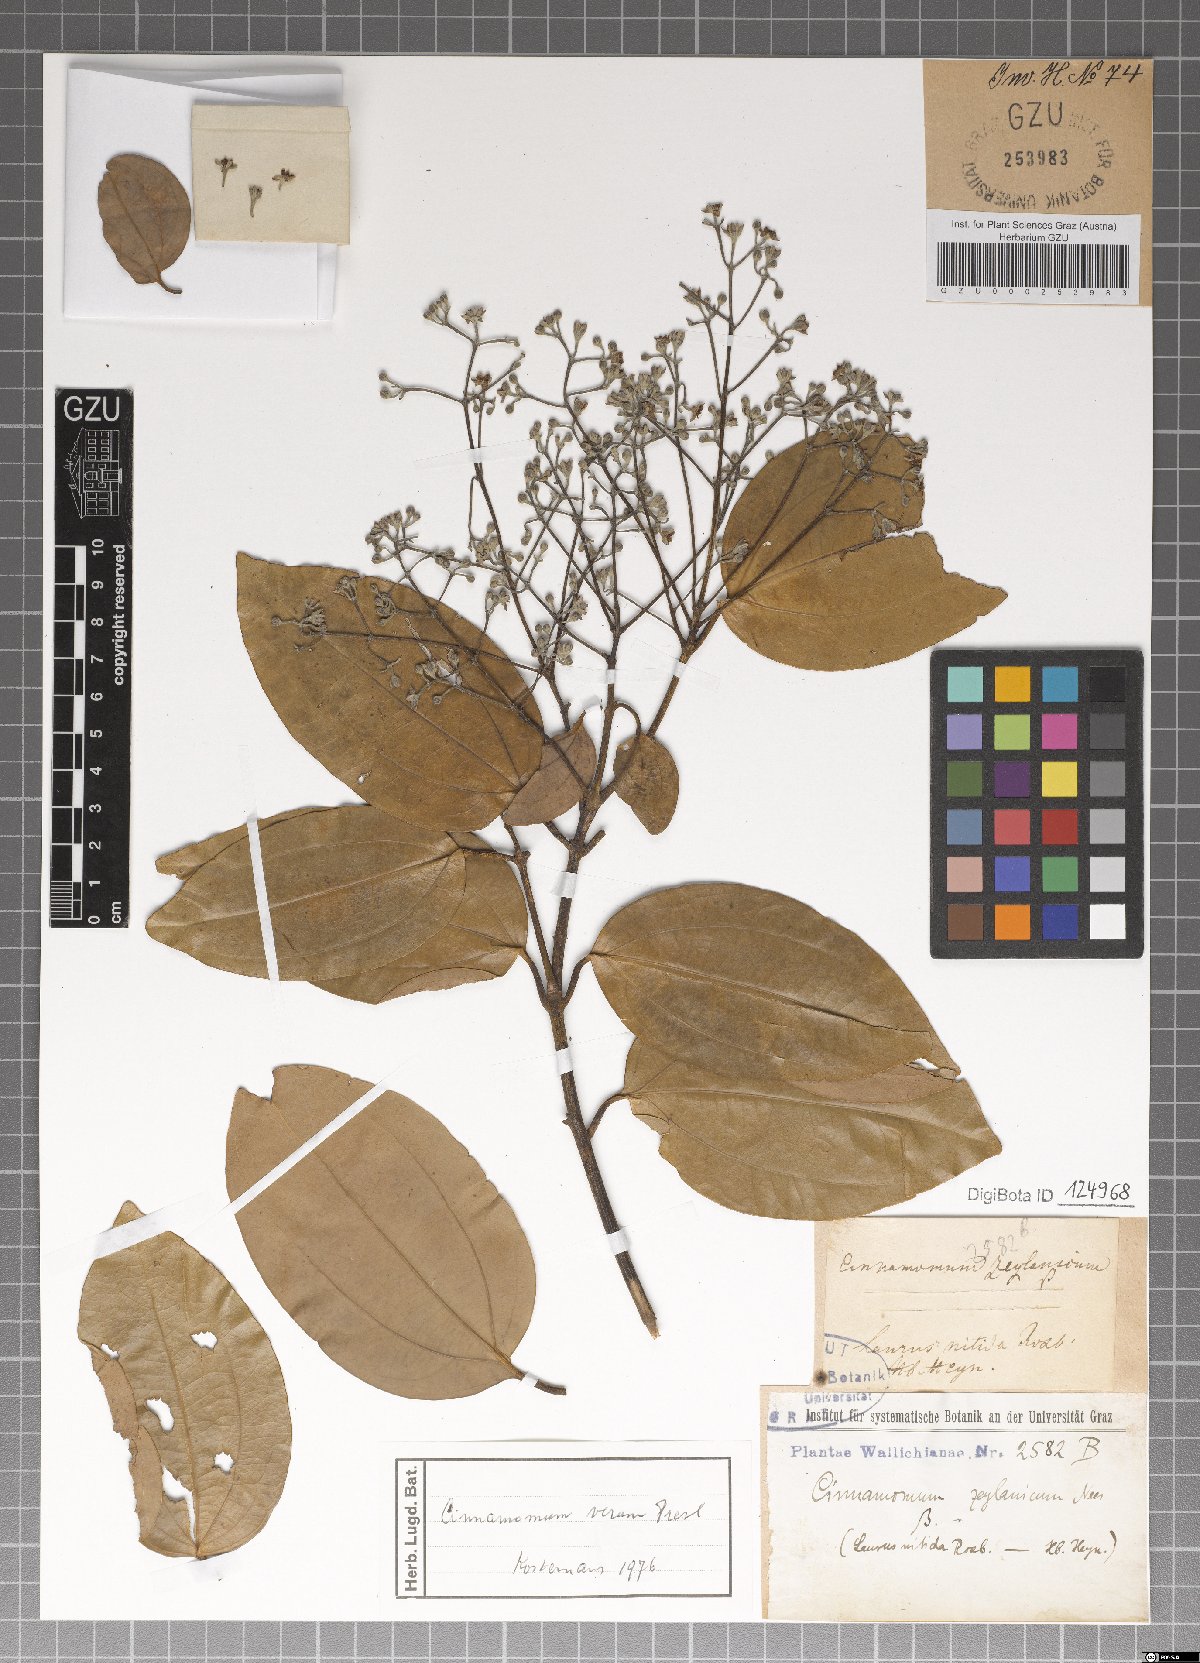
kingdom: Plantae
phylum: Tracheophyta
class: Magnoliopsida
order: Laurales
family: Lauraceae
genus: Cinnamomum
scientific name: Cinnamomum verum
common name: Cinnamon
